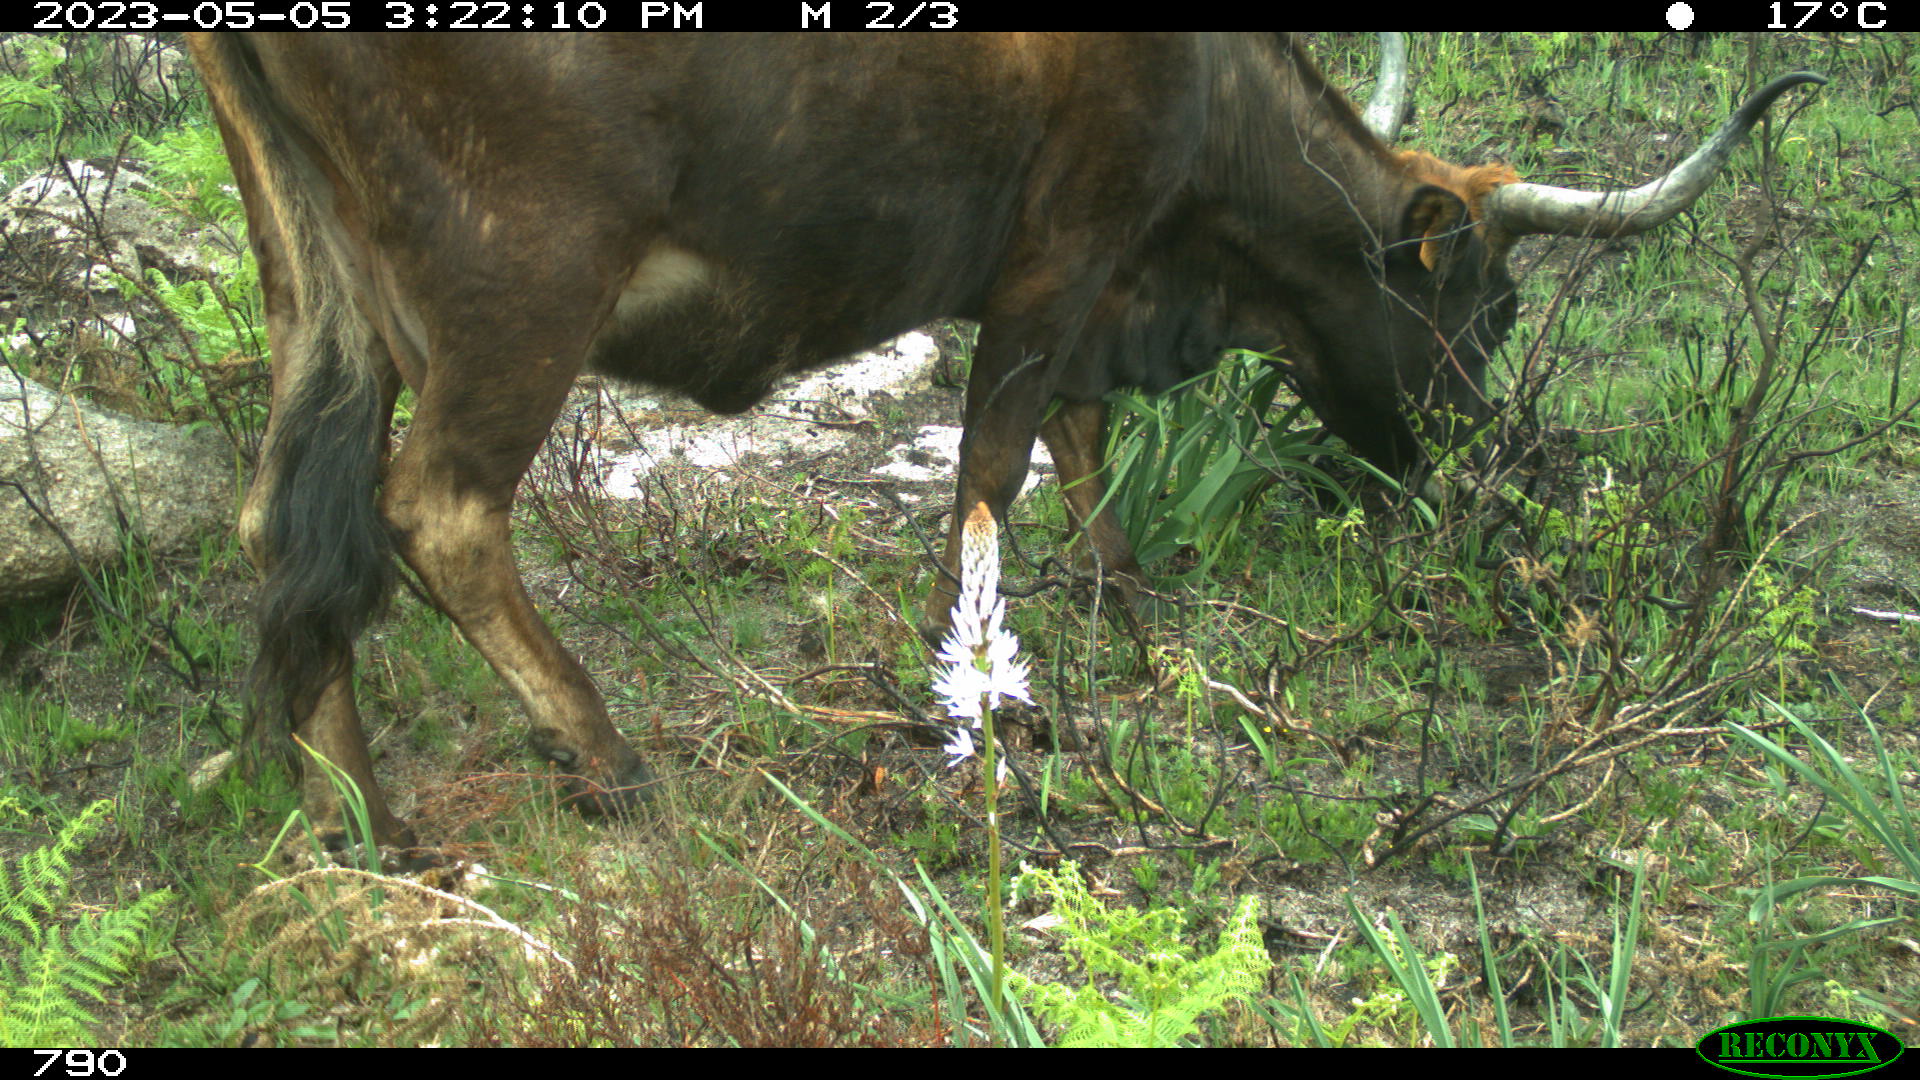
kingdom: Animalia
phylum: Chordata
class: Mammalia
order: Artiodactyla
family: Bovidae
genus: Bos
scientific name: Bos taurus
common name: Domesticated cattle
